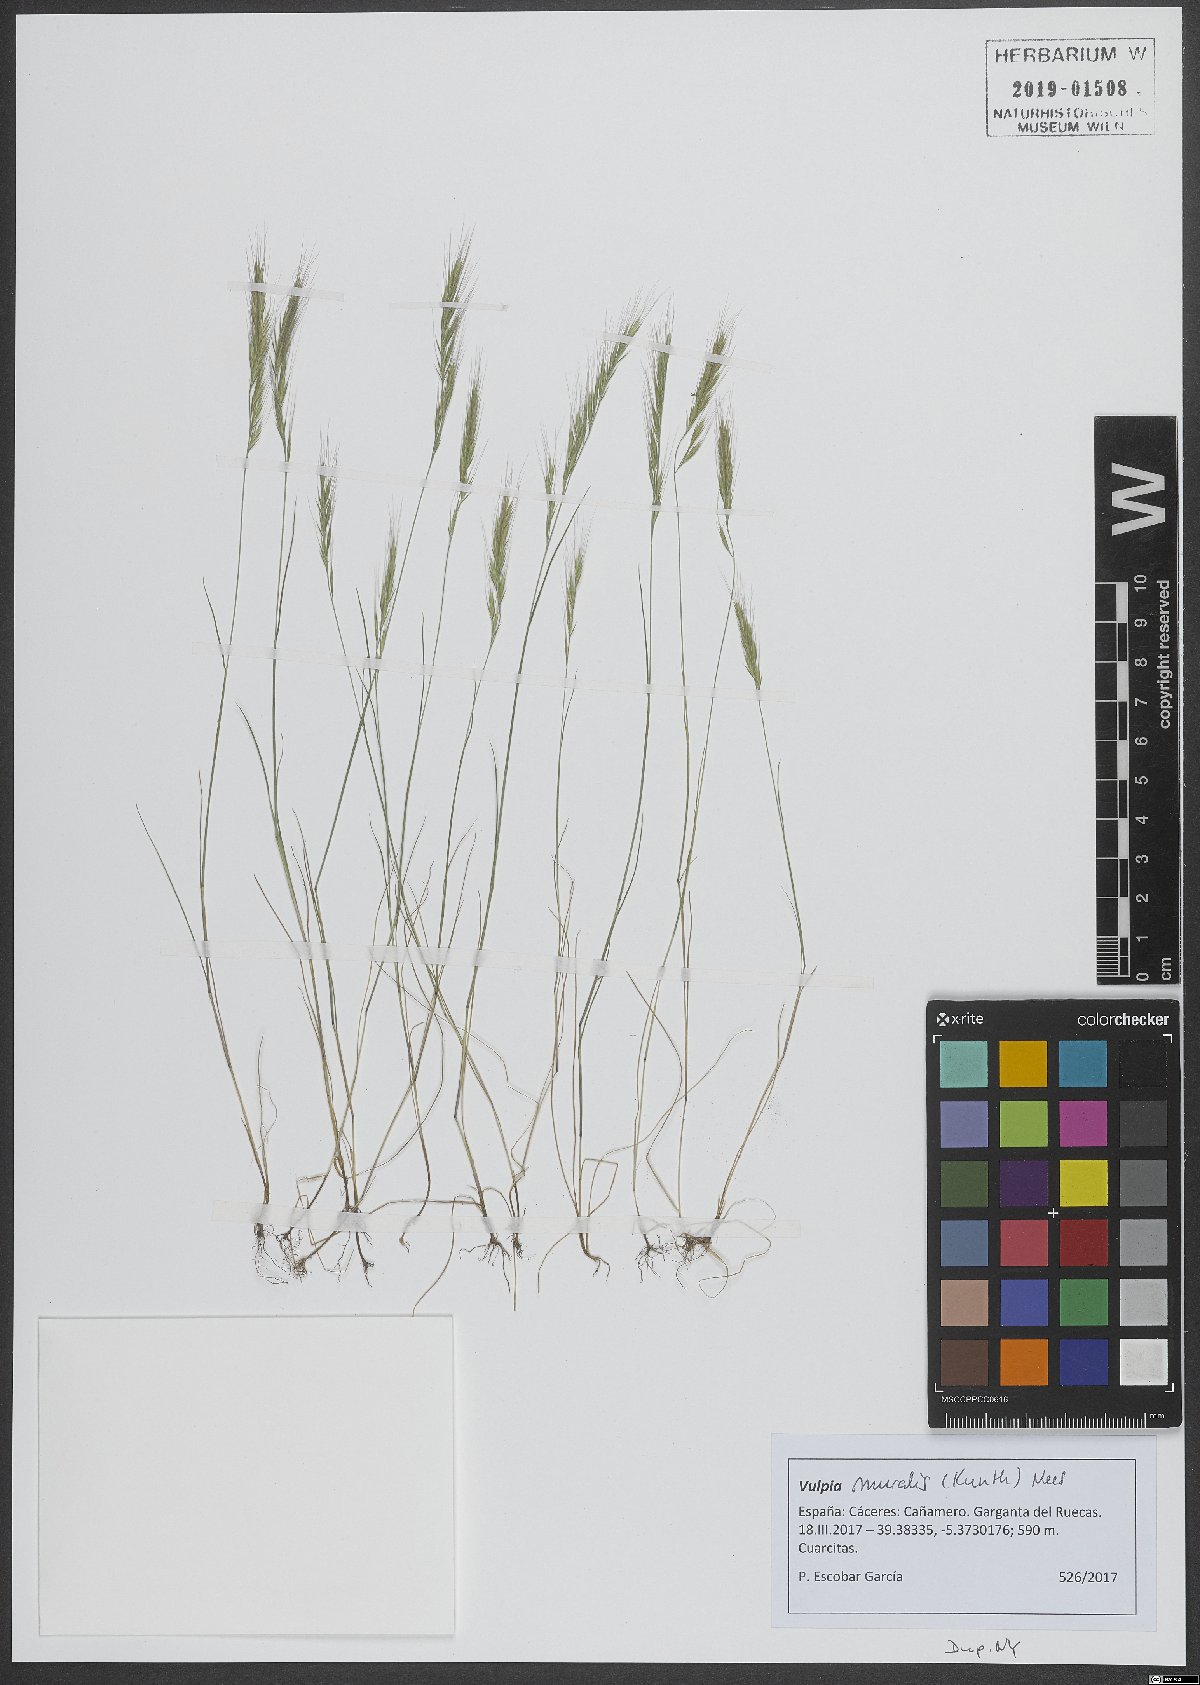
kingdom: Plantae
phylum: Tracheophyta
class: Liliopsida
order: Poales
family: Poaceae
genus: Festuca
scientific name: Festuca muralis
